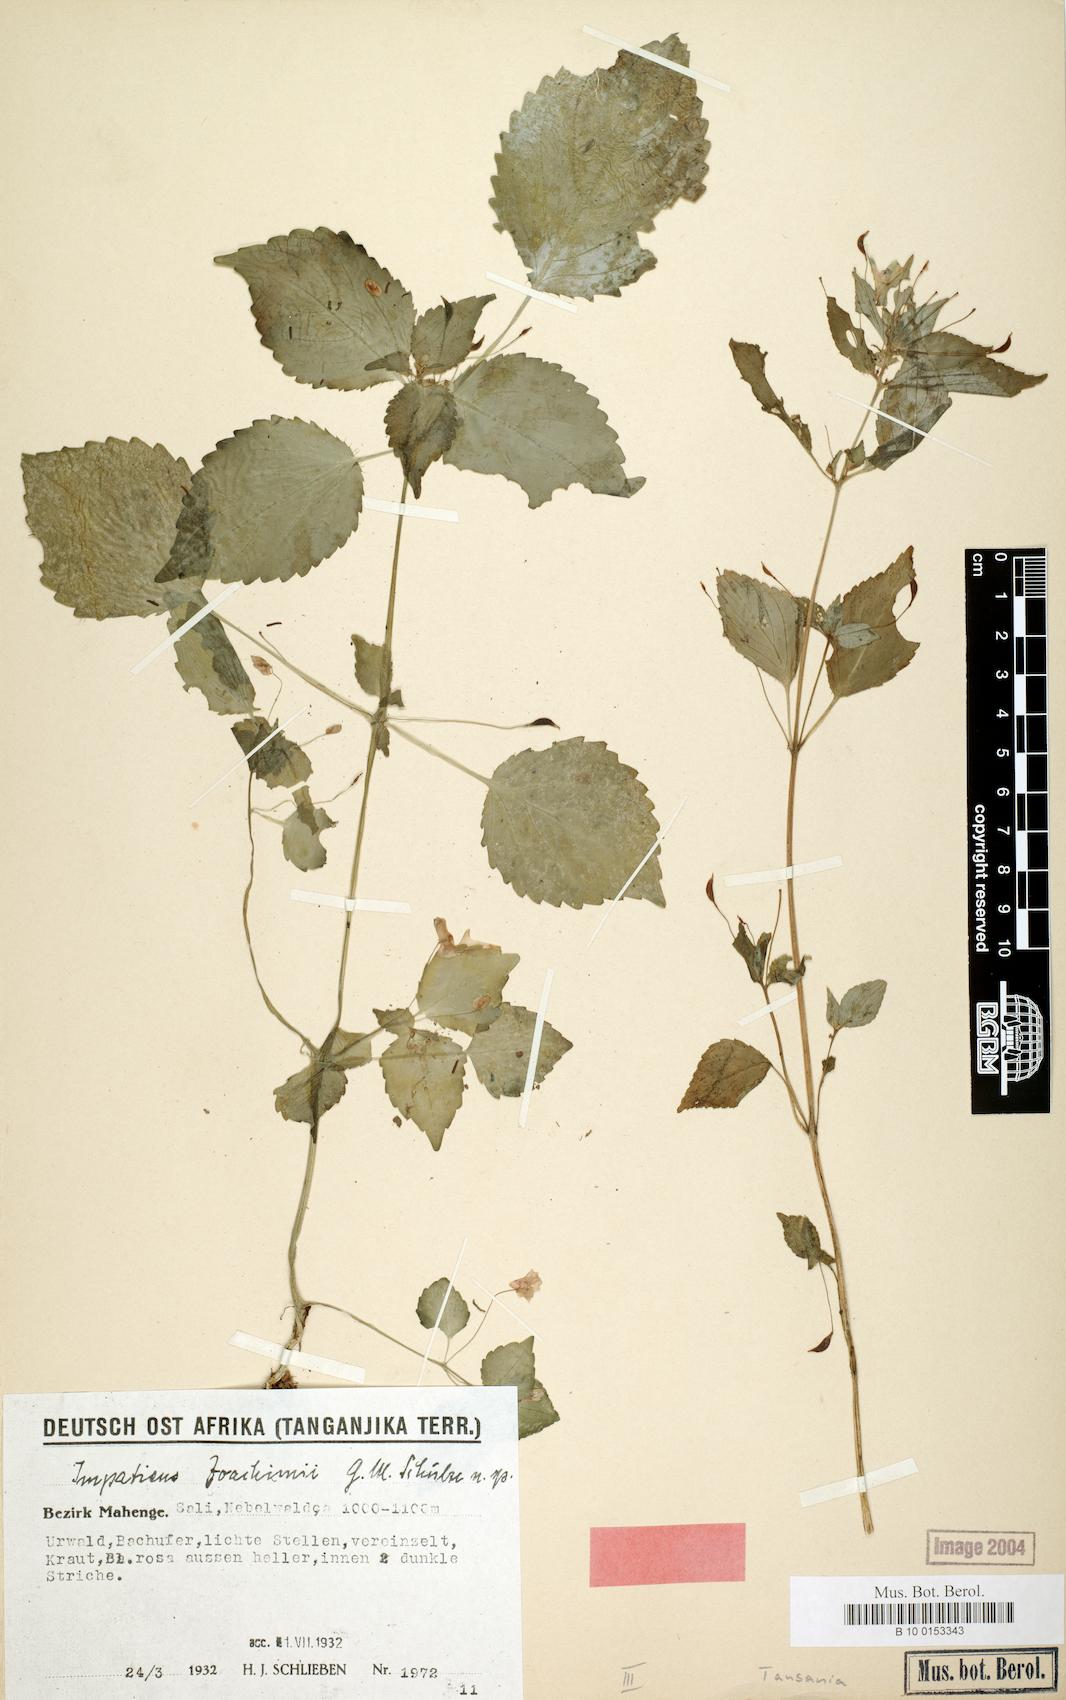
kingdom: Plantae
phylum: Tracheophyta
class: Magnoliopsida
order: Ericales
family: Balsaminaceae
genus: Impatiens
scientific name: Impatiens joachimii
